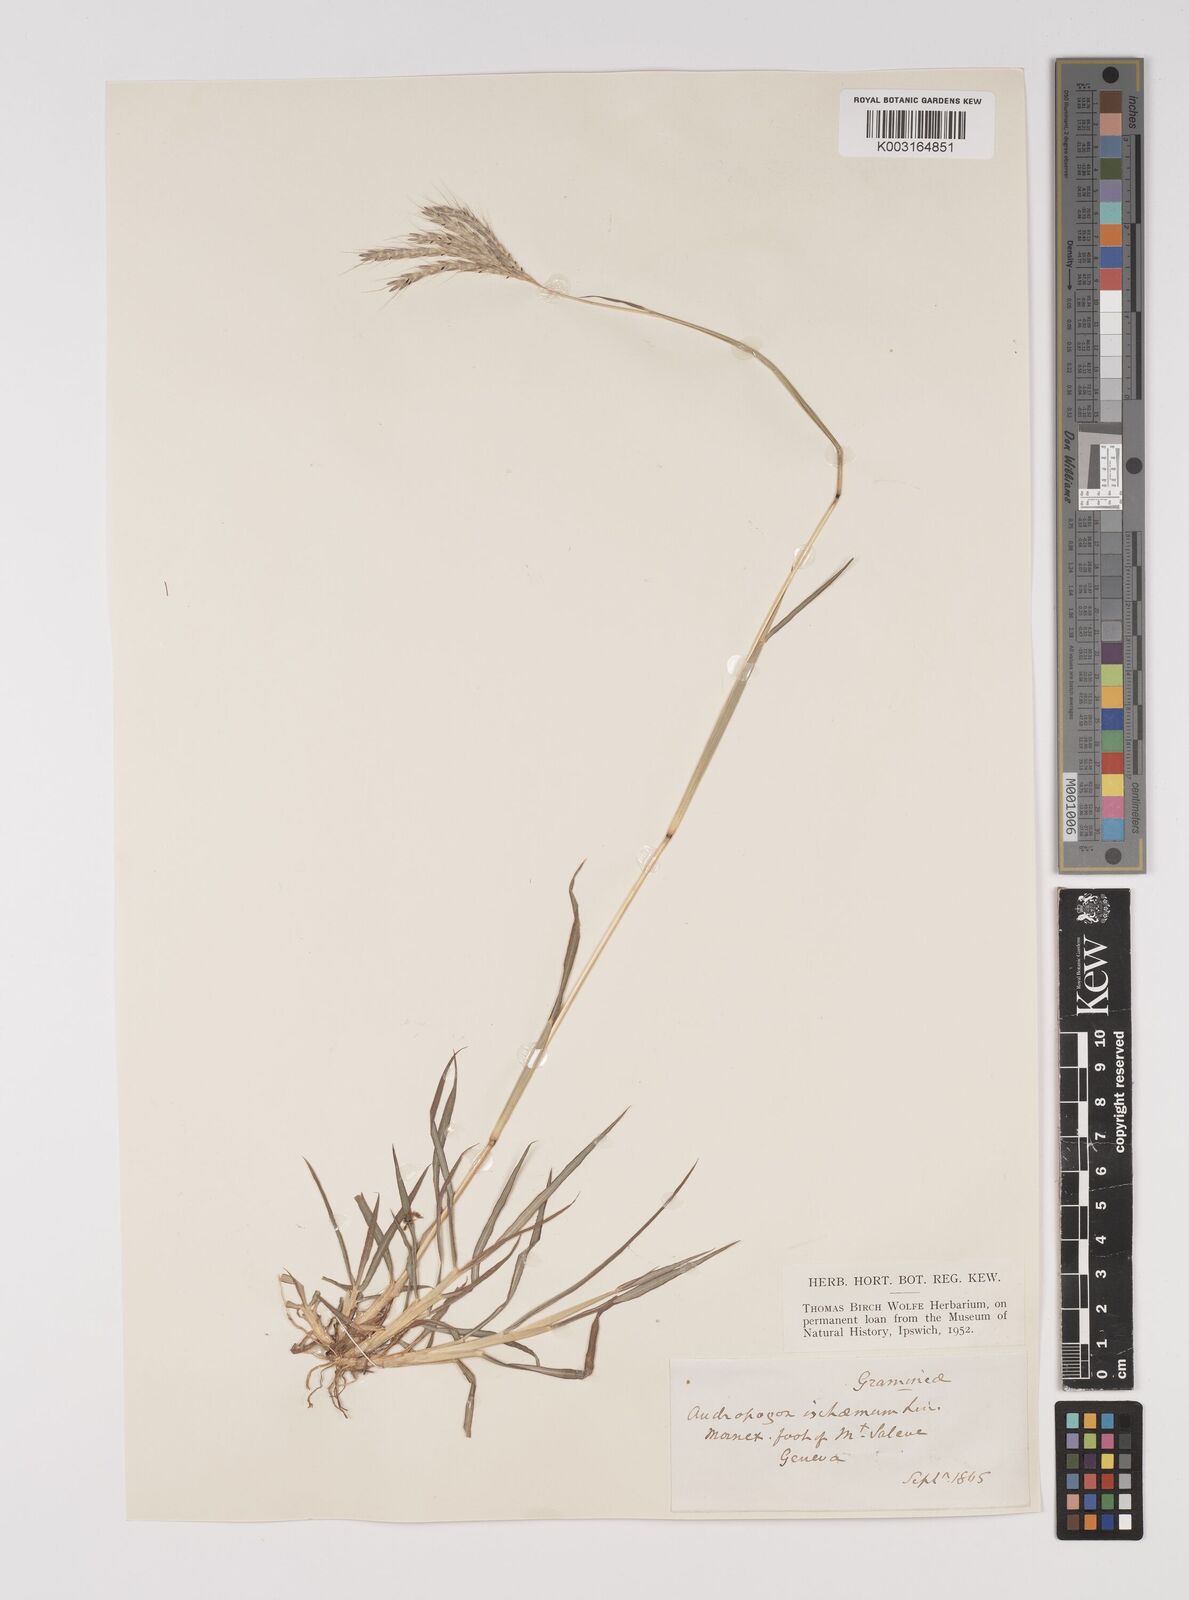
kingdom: Plantae
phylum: Tracheophyta
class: Liliopsida
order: Poales
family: Poaceae
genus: Bothriochloa
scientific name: Bothriochloa ischaemum
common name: Yellow bluestem
